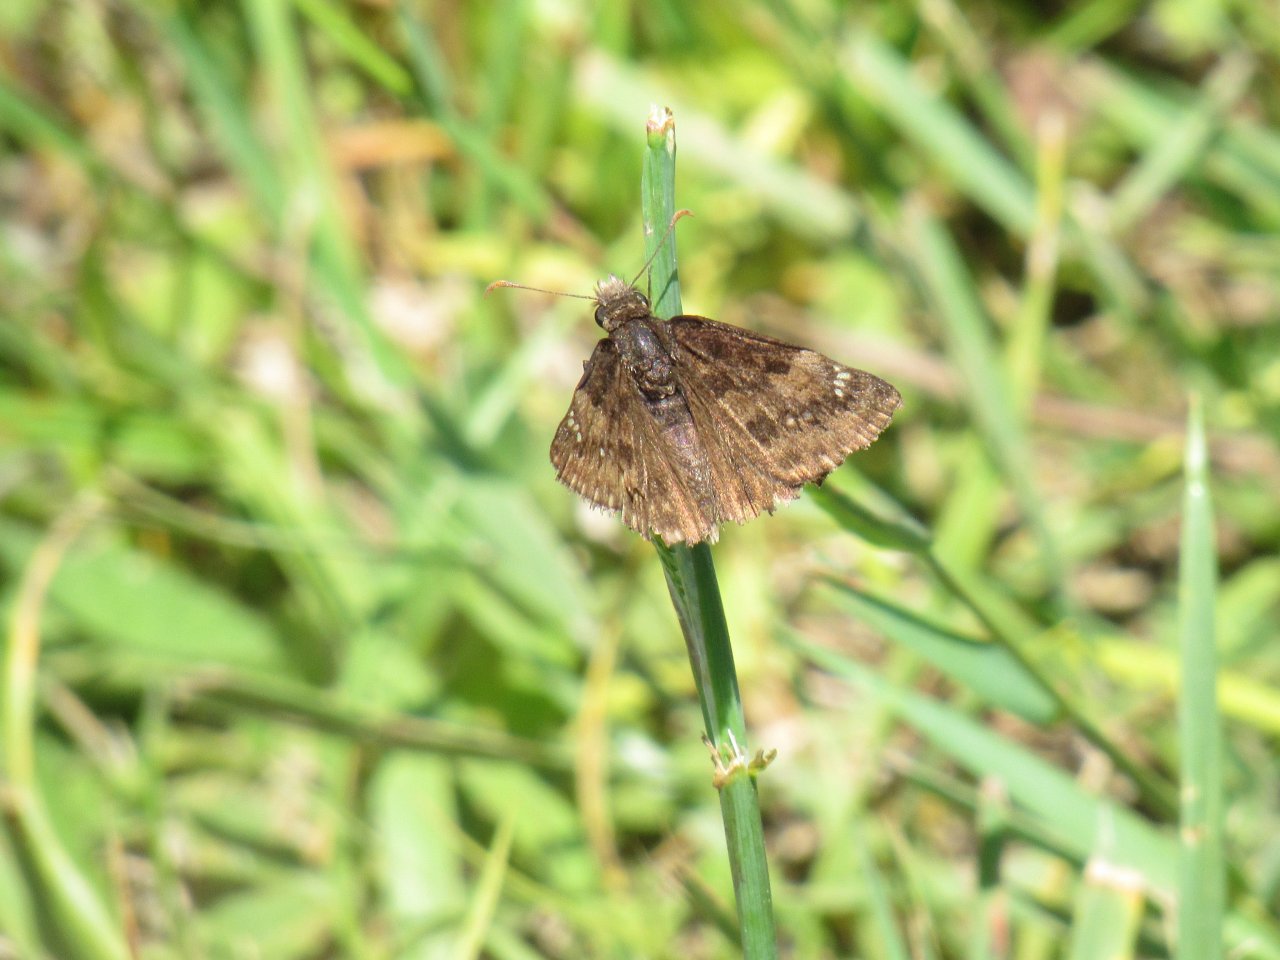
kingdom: Animalia
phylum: Arthropoda
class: Insecta
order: Lepidoptera
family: Hesperiidae
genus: Gesta
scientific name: Gesta
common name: Wild Indigo Duskywing
